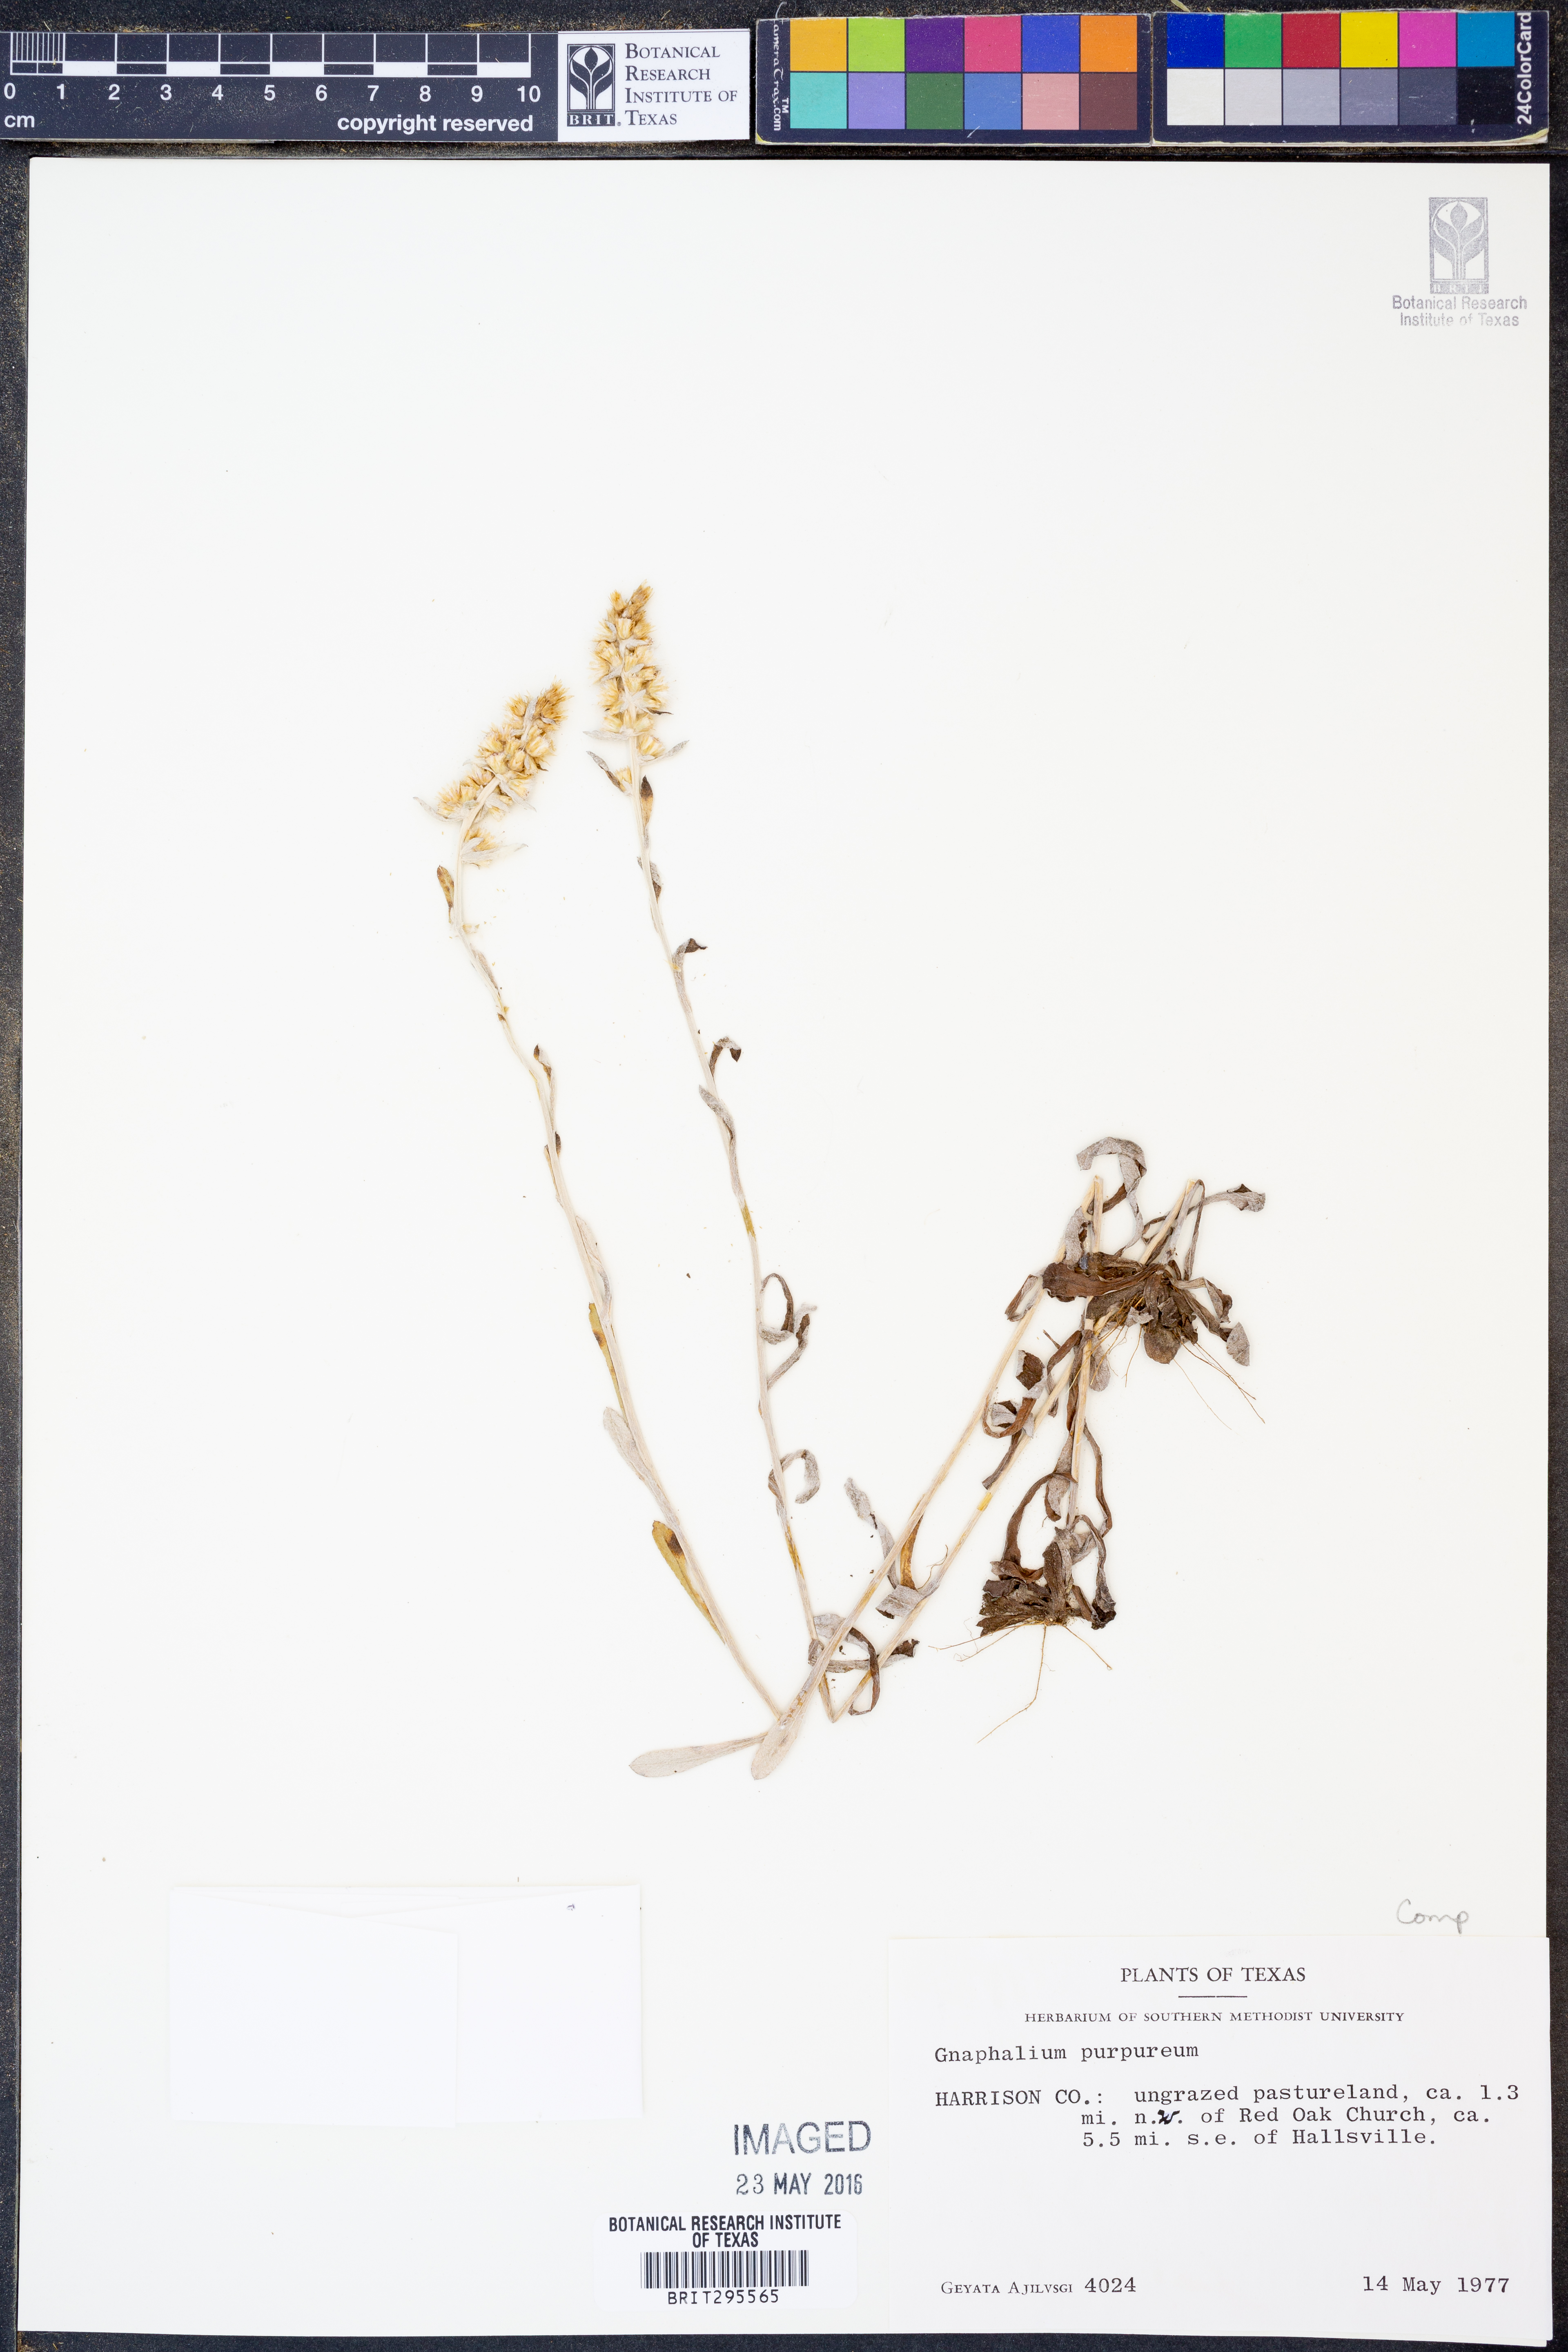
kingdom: Plantae
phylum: Tracheophyta
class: Magnoliopsida
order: Asterales
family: Asteraceae
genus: Gamochaeta
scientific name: Gamochaeta purpurea
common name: Purple cudweed
